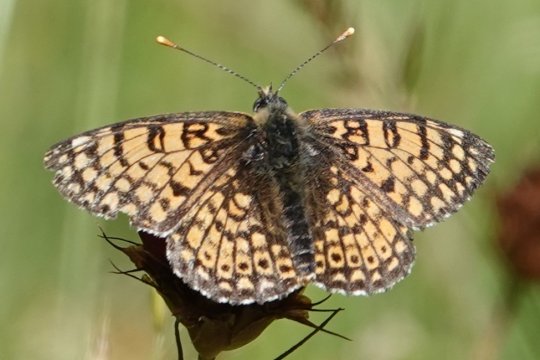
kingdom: Animalia
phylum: Arthropoda
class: Insecta
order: Lepidoptera
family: Nymphalidae
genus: Melitaea
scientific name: Melitaea cinxia
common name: Glanville Fritillary
